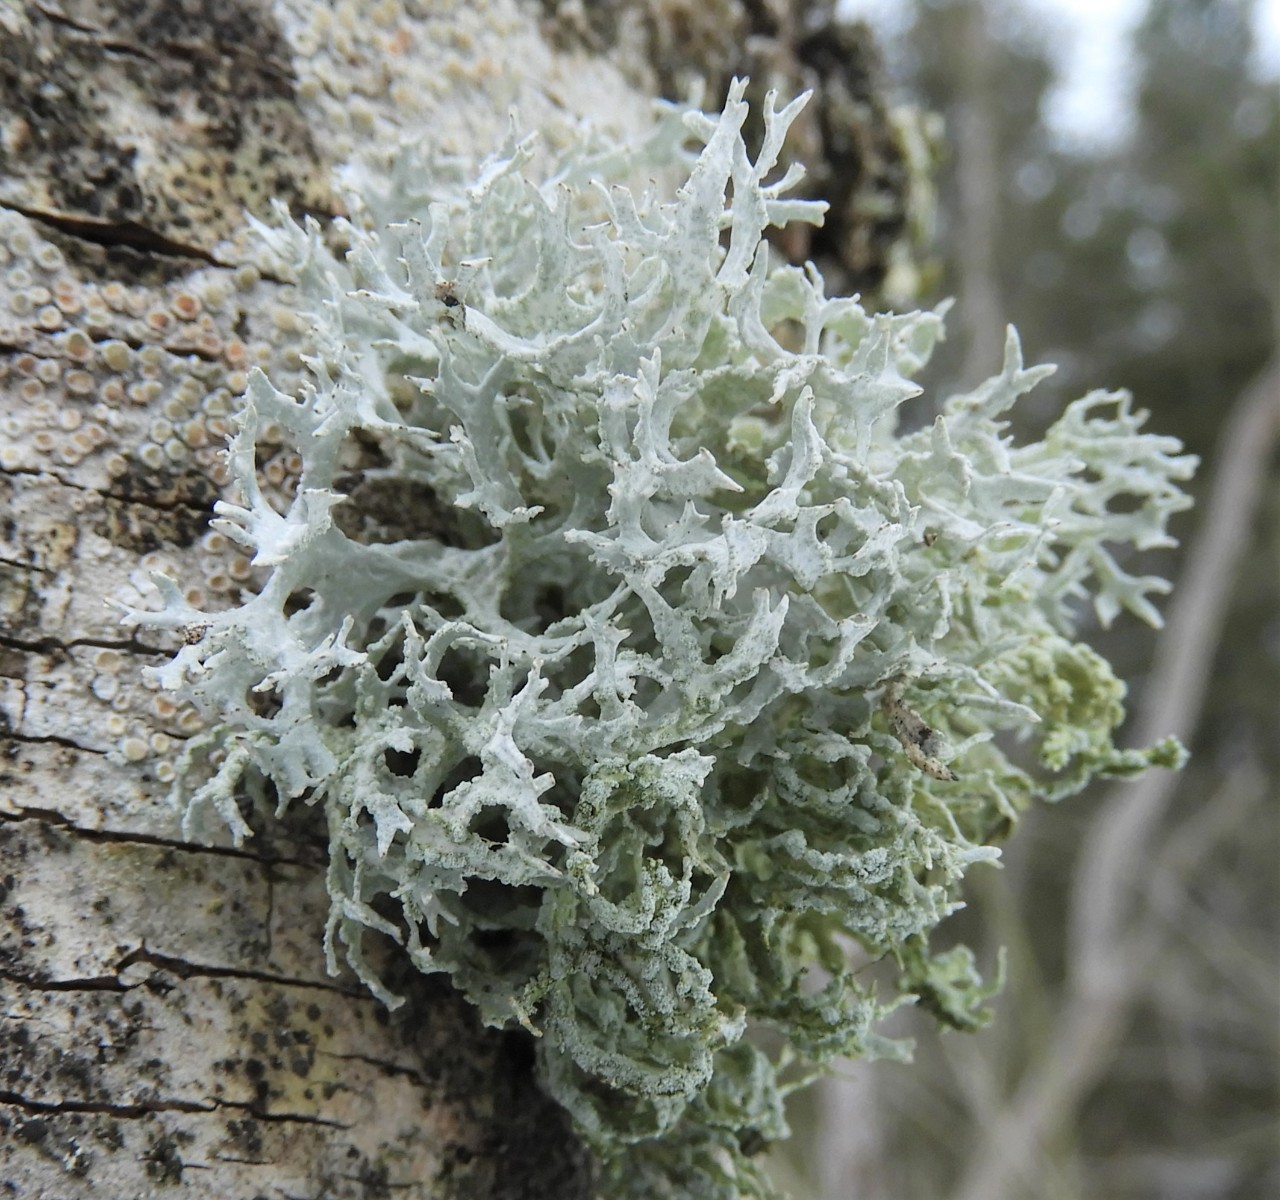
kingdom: Fungi
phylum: Ascomycota
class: Lecanoromycetes
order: Lecanorales
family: Parmeliaceae
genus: Evernia
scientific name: Evernia prunastri
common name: almindelig slåenlav
